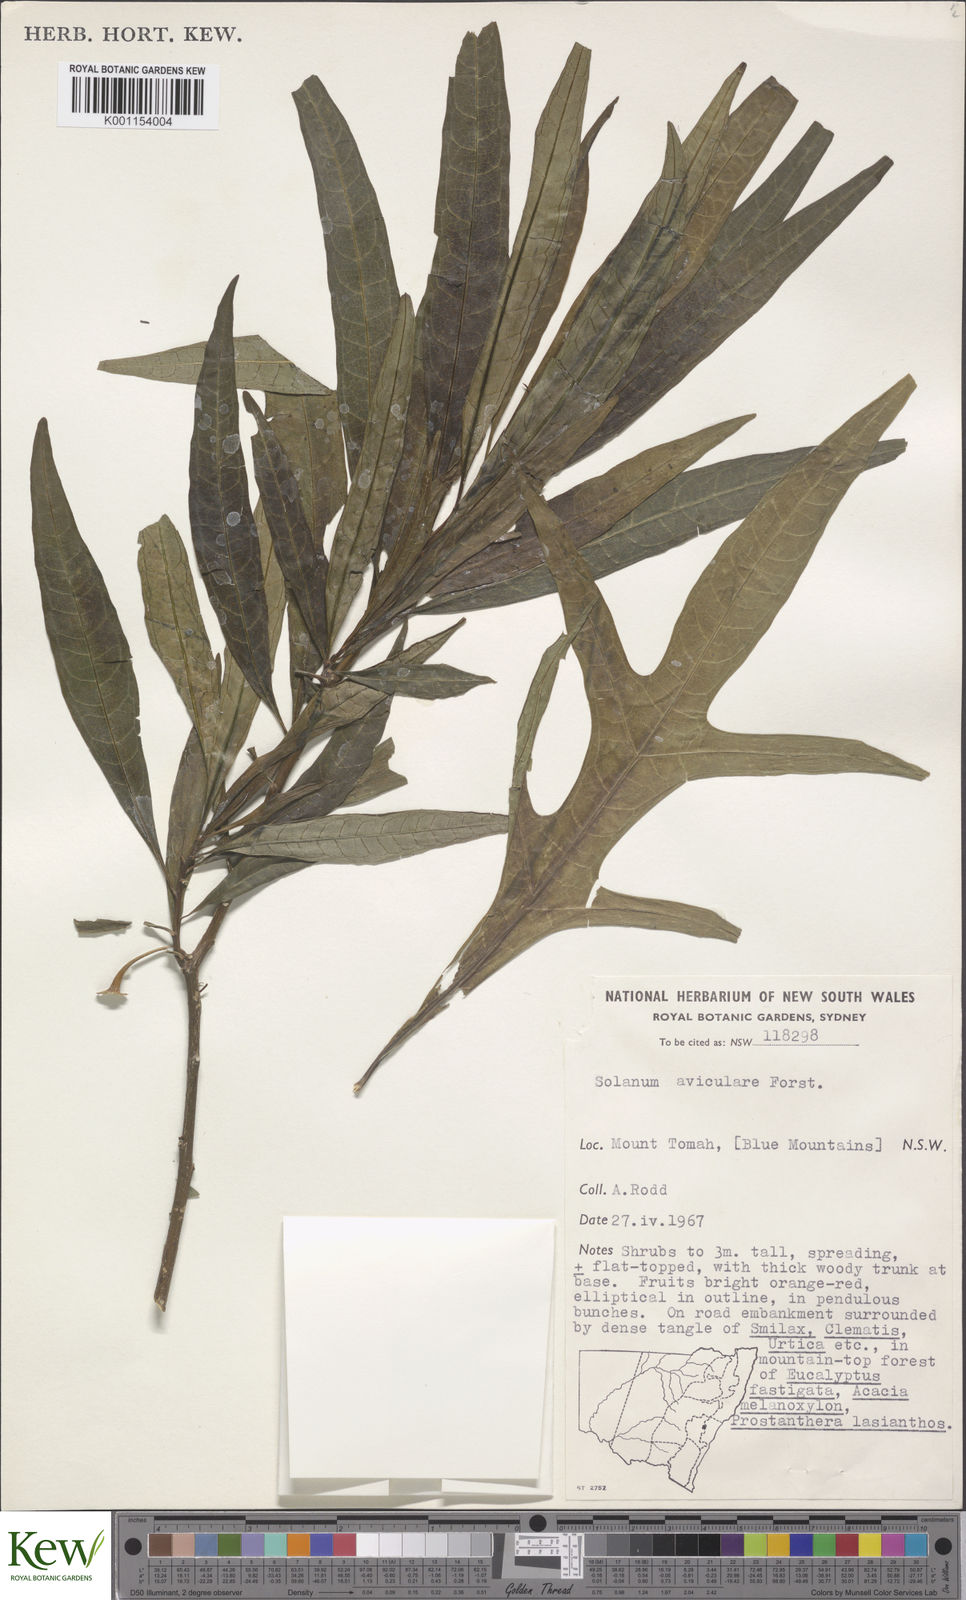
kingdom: Plantae
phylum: Tracheophyta
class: Magnoliopsida
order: Solanales
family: Solanaceae
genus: Solanum
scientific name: Solanum aviculare
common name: New zealand nightshade
